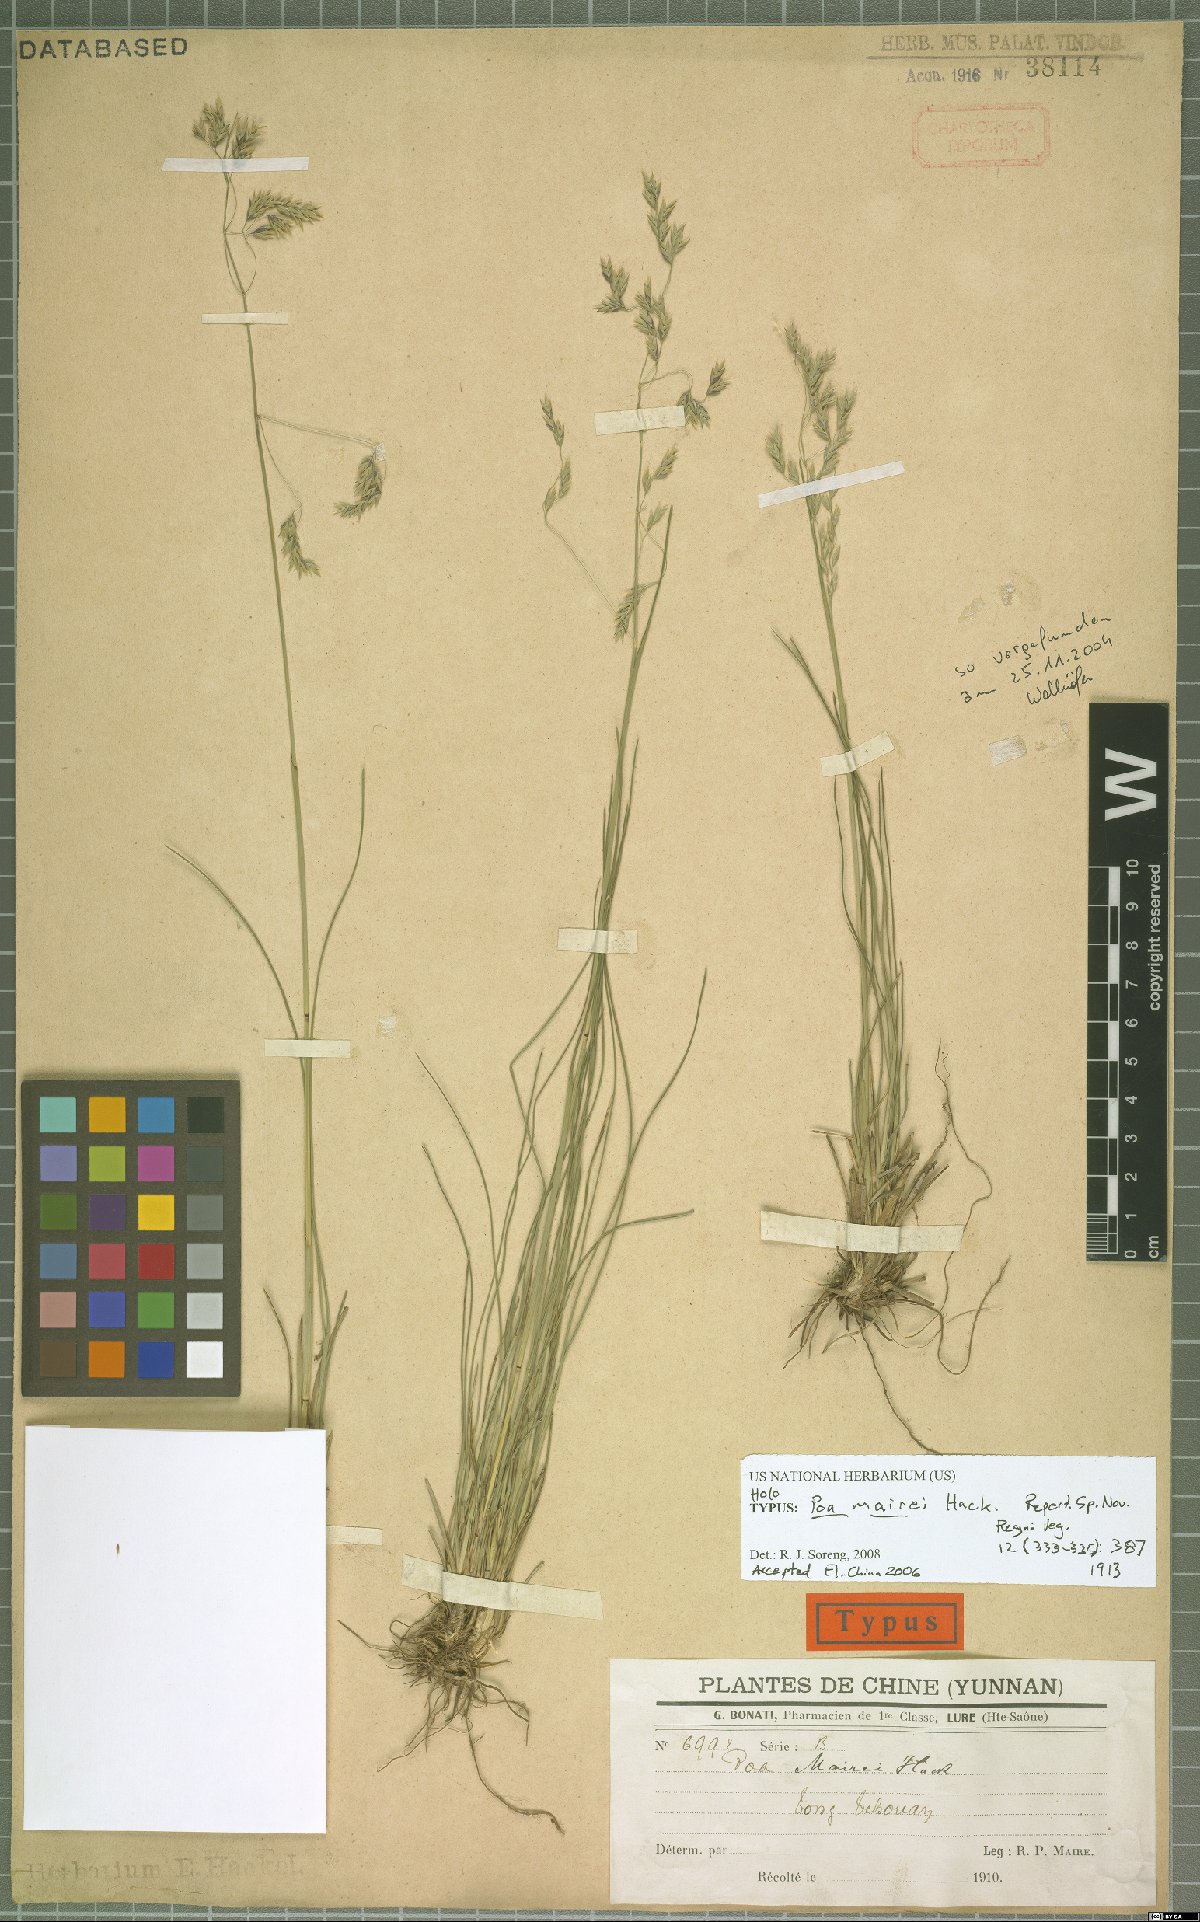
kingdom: Plantae
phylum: Tracheophyta
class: Liliopsida
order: Poales
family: Poaceae
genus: Poa
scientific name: Poa mairei
